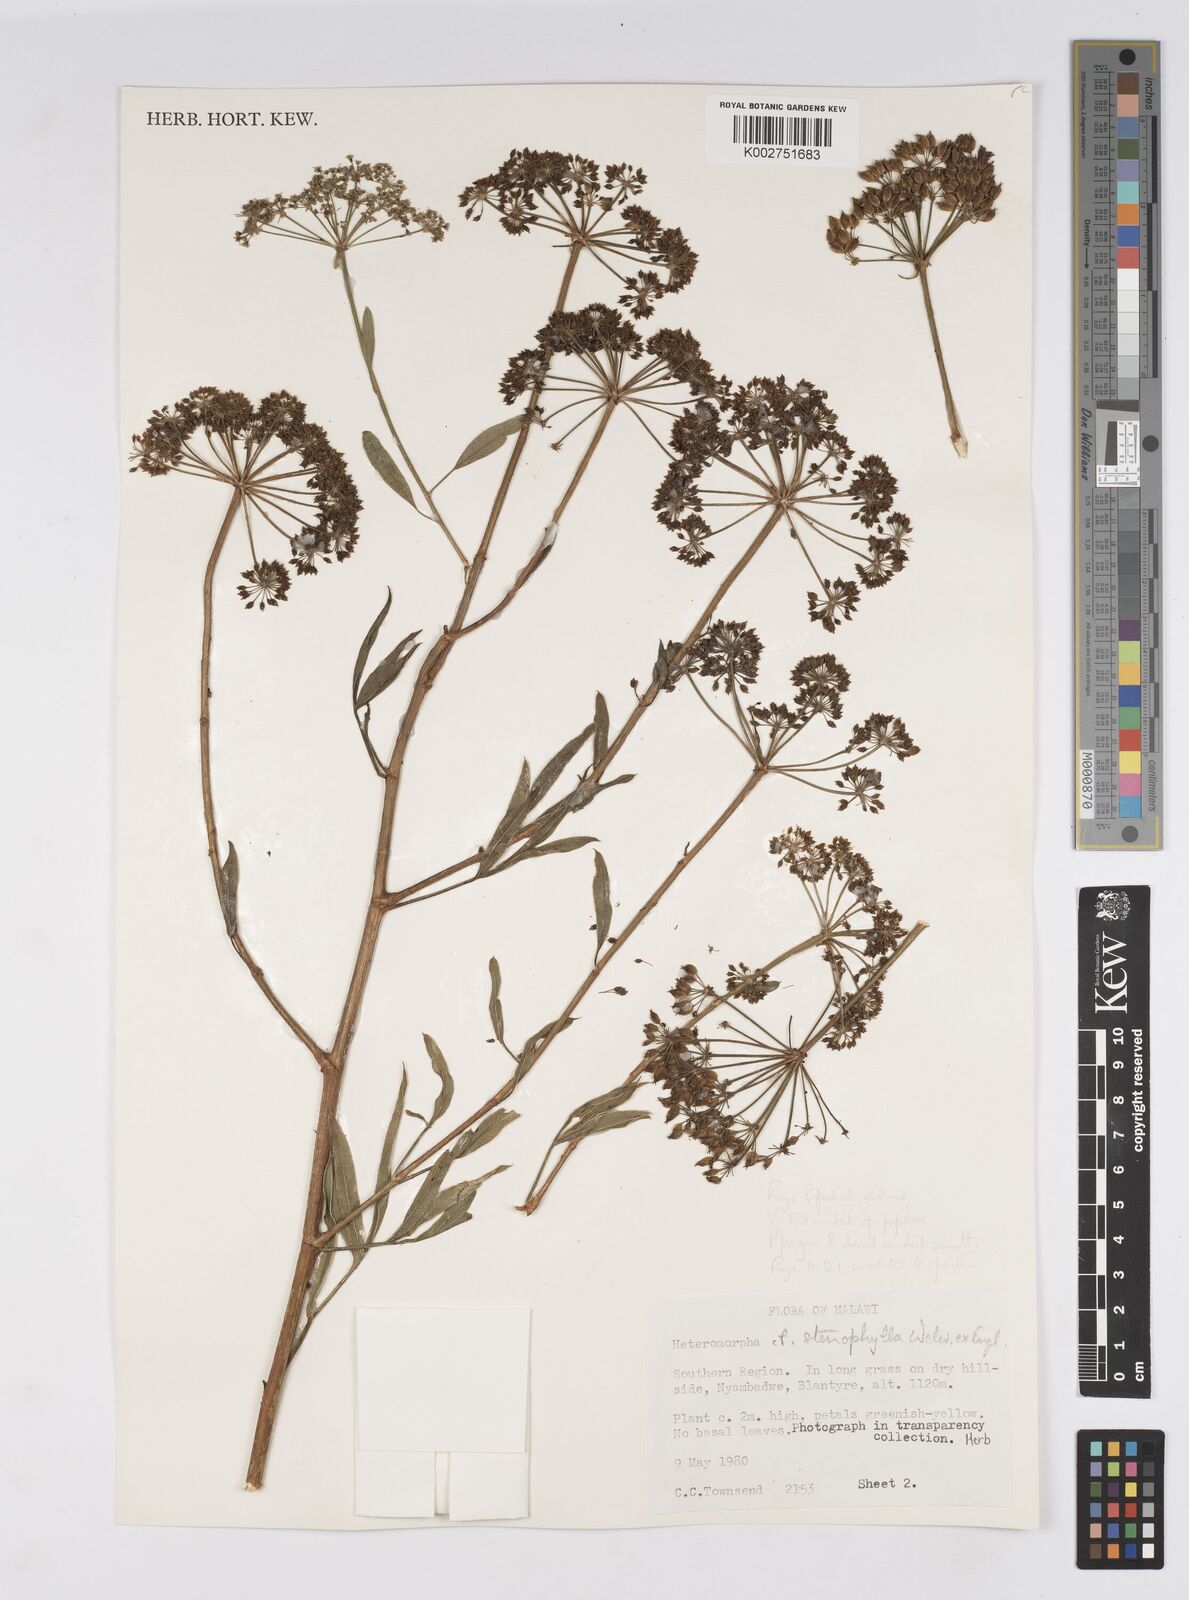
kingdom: Plantae
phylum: Tracheophyta
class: Magnoliopsida
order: Apiales
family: Apiaceae
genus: Heteromorpha
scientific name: Heteromorpha stenophylla
